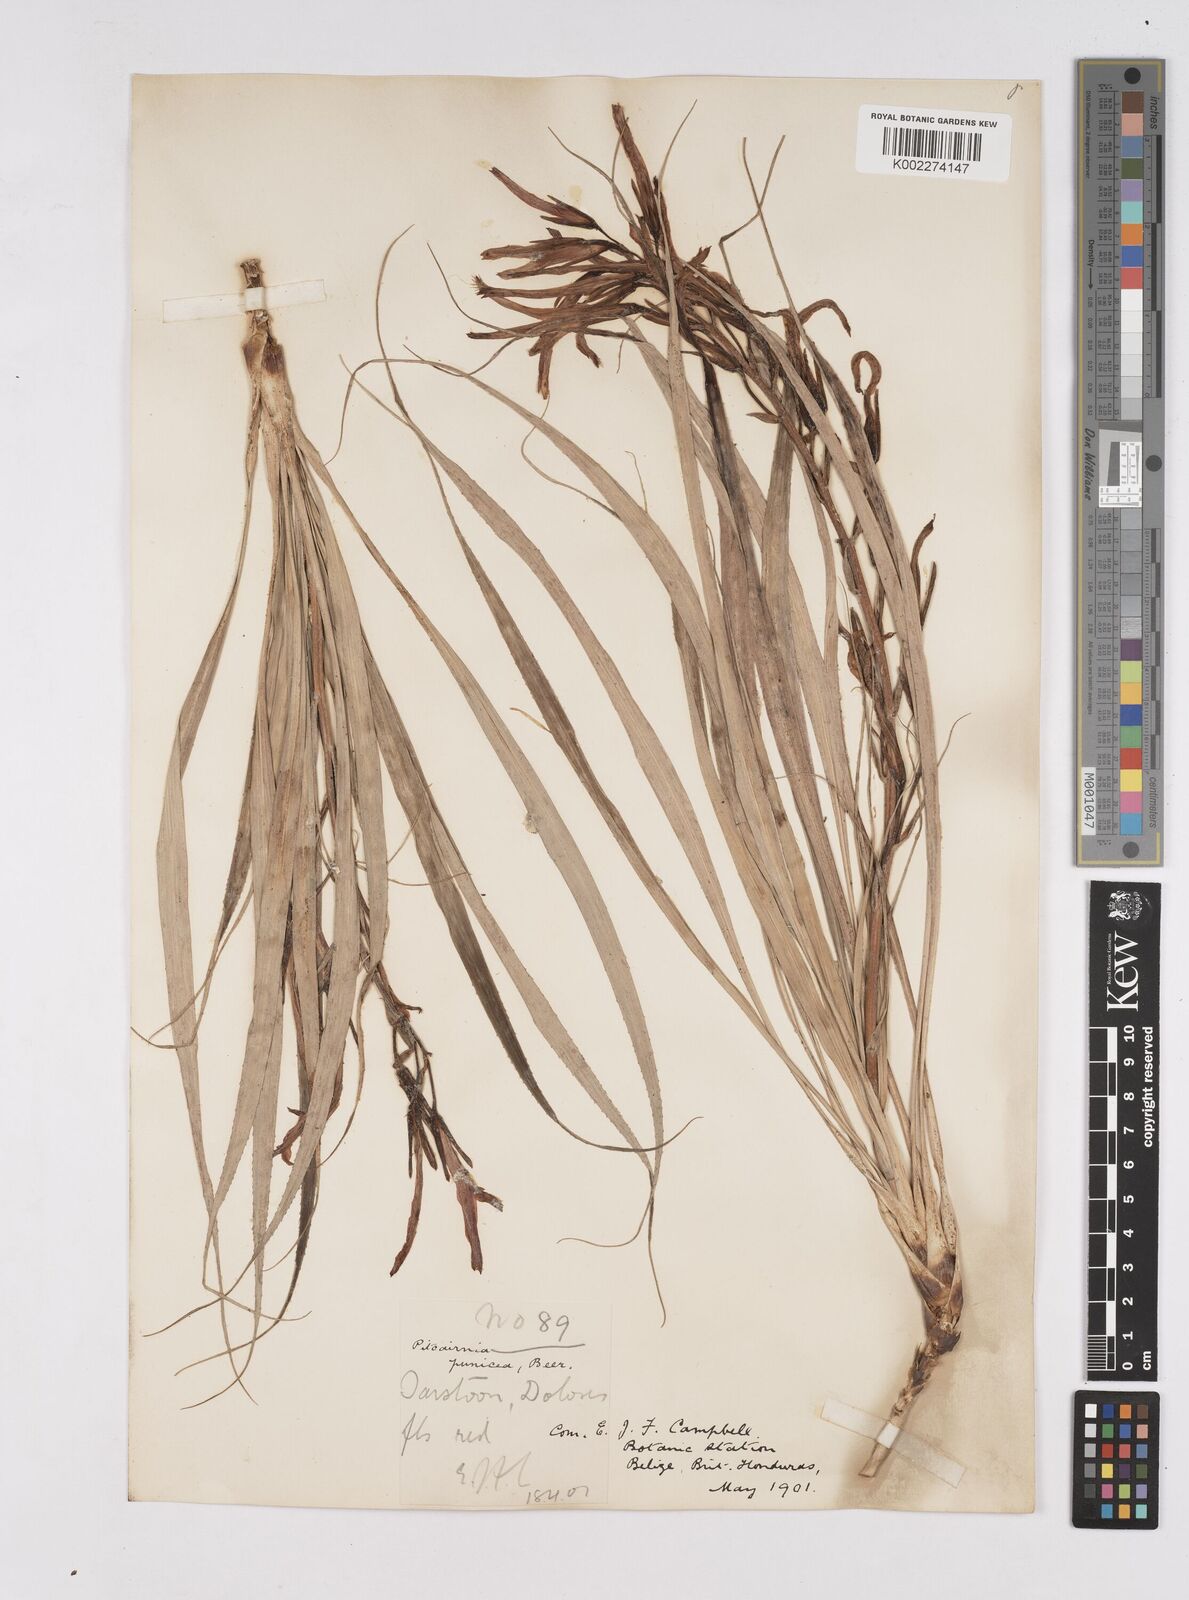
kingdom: Plantae
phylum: Tracheophyta
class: Liliopsida
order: Poales
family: Bromeliaceae
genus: Pitcairnia
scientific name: Pitcairnia punicea
